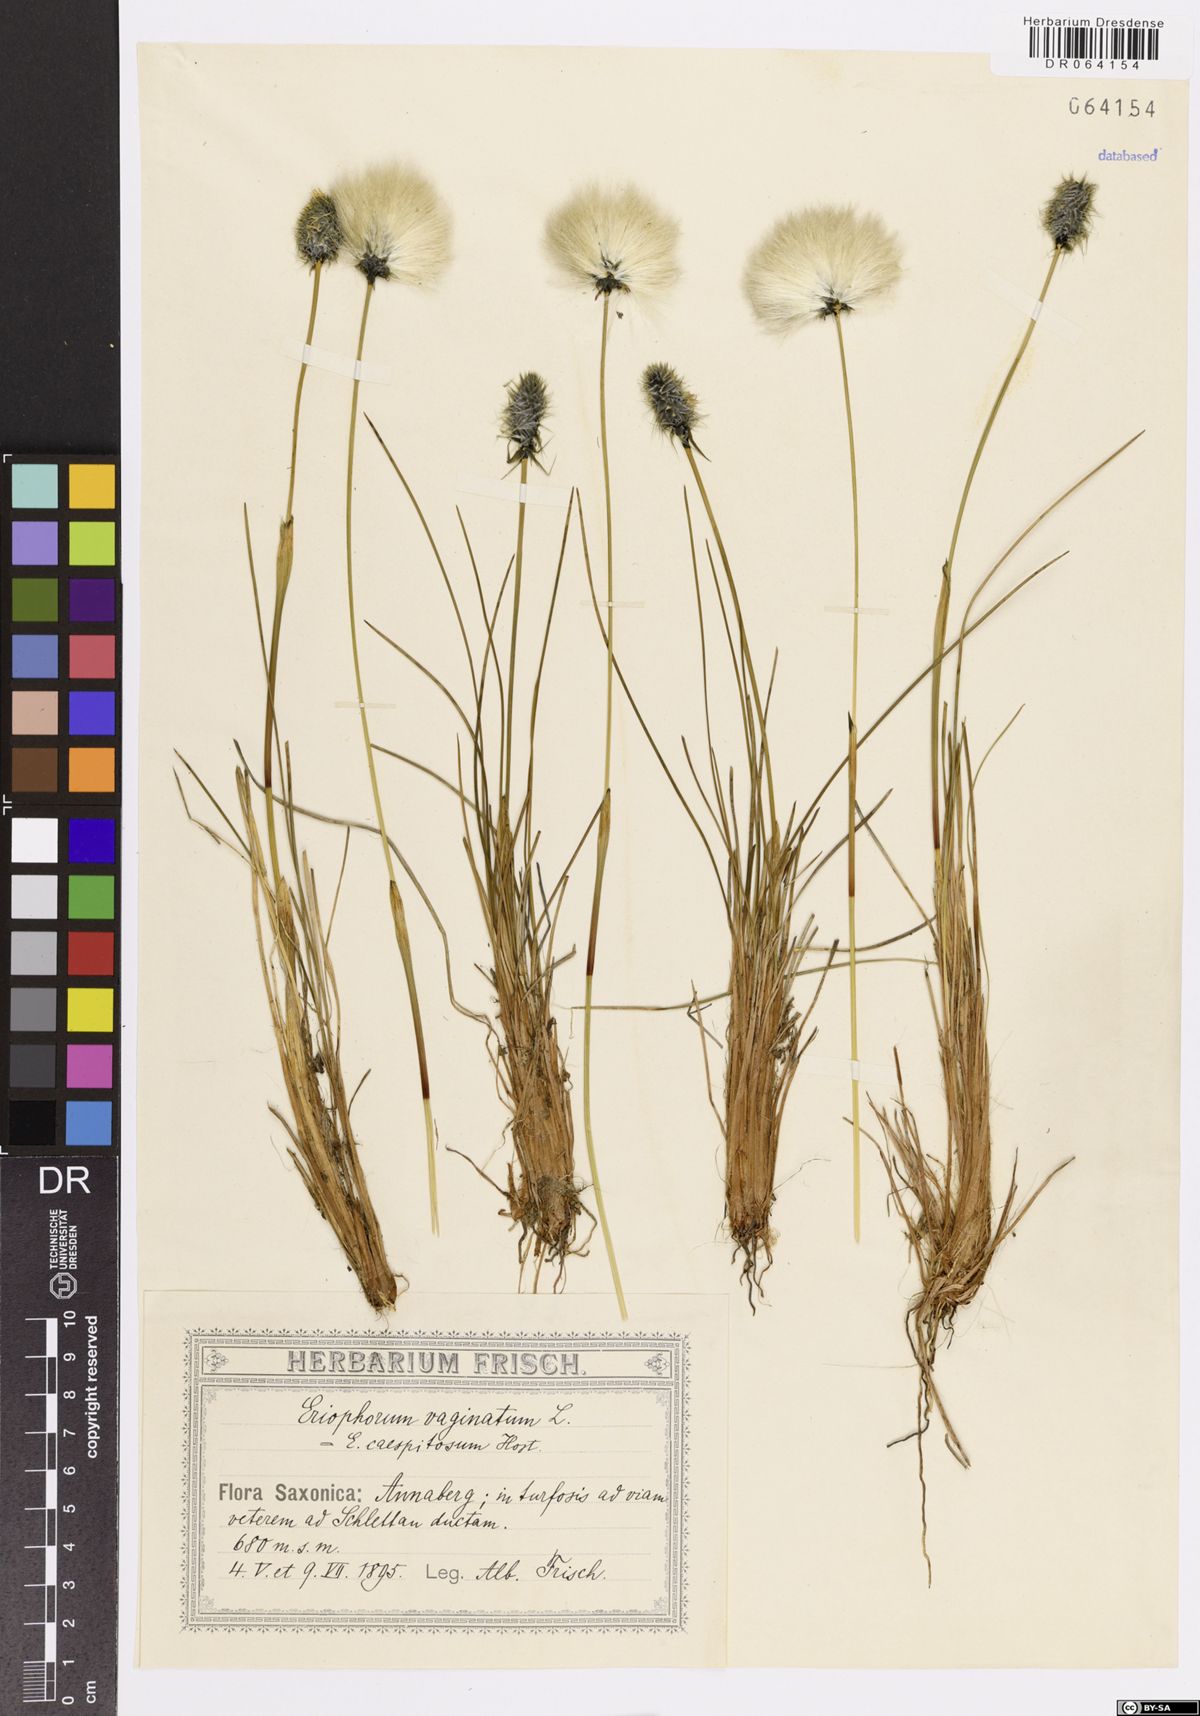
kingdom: Plantae
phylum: Tracheophyta
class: Liliopsida
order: Poales
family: Cyperaceae
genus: Eriophorum
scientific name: Eriophorum vaginatum
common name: Hare's-tail cottongrass
